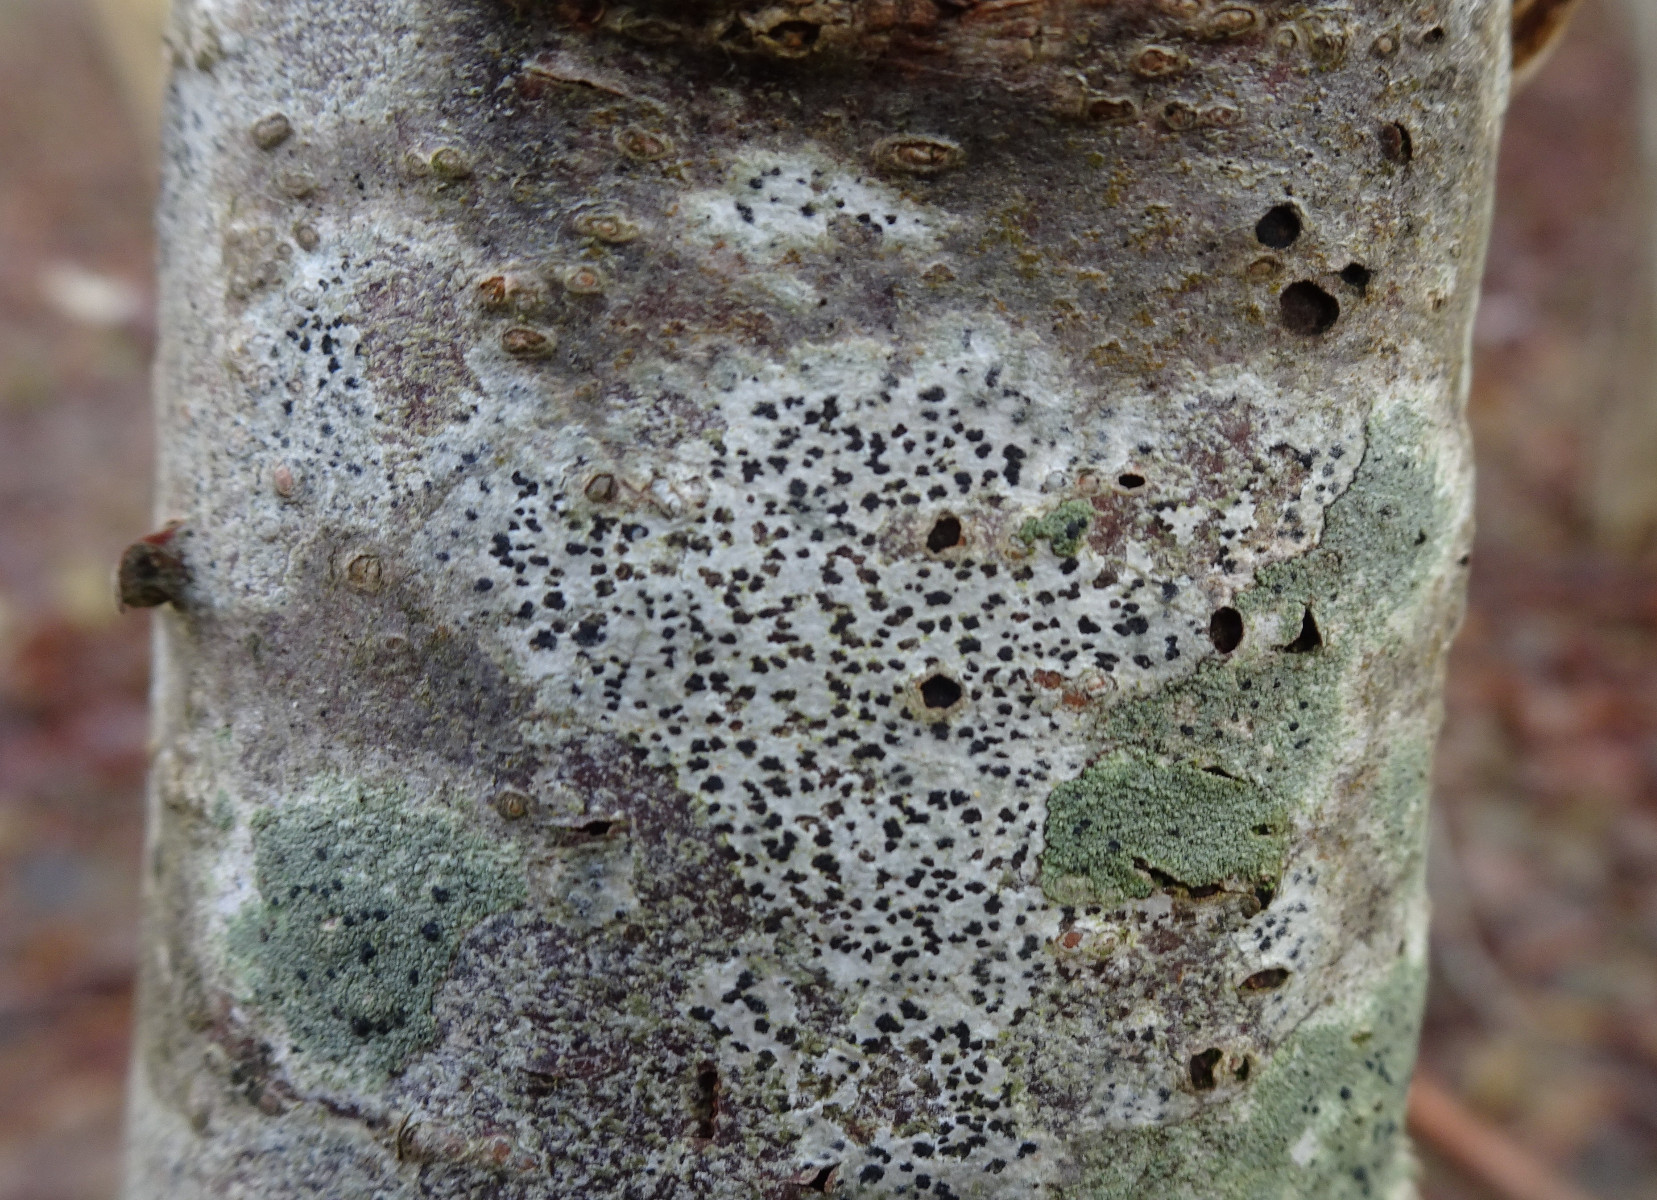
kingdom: Fungi
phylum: Ascomycota
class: Arthoniomycetes
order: Arthoniales
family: Arthoniaceae
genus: Arthonia
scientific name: Arthonia radiata
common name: stjerne-pletlav
